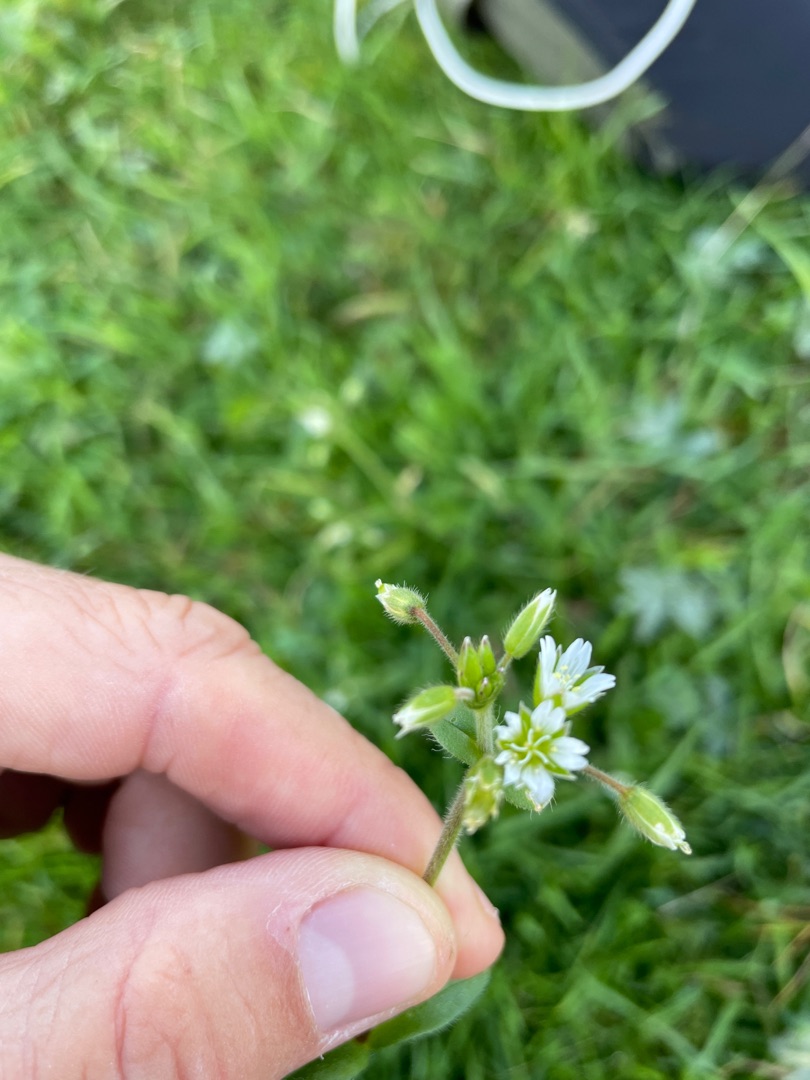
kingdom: Plantae
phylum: Tracheophyta
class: Magnoliopsida
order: Caryophyllales
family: Caryophyllaceae
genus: Cerastium
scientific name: Cerastium fontanum
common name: Almindelig hønsetarm
